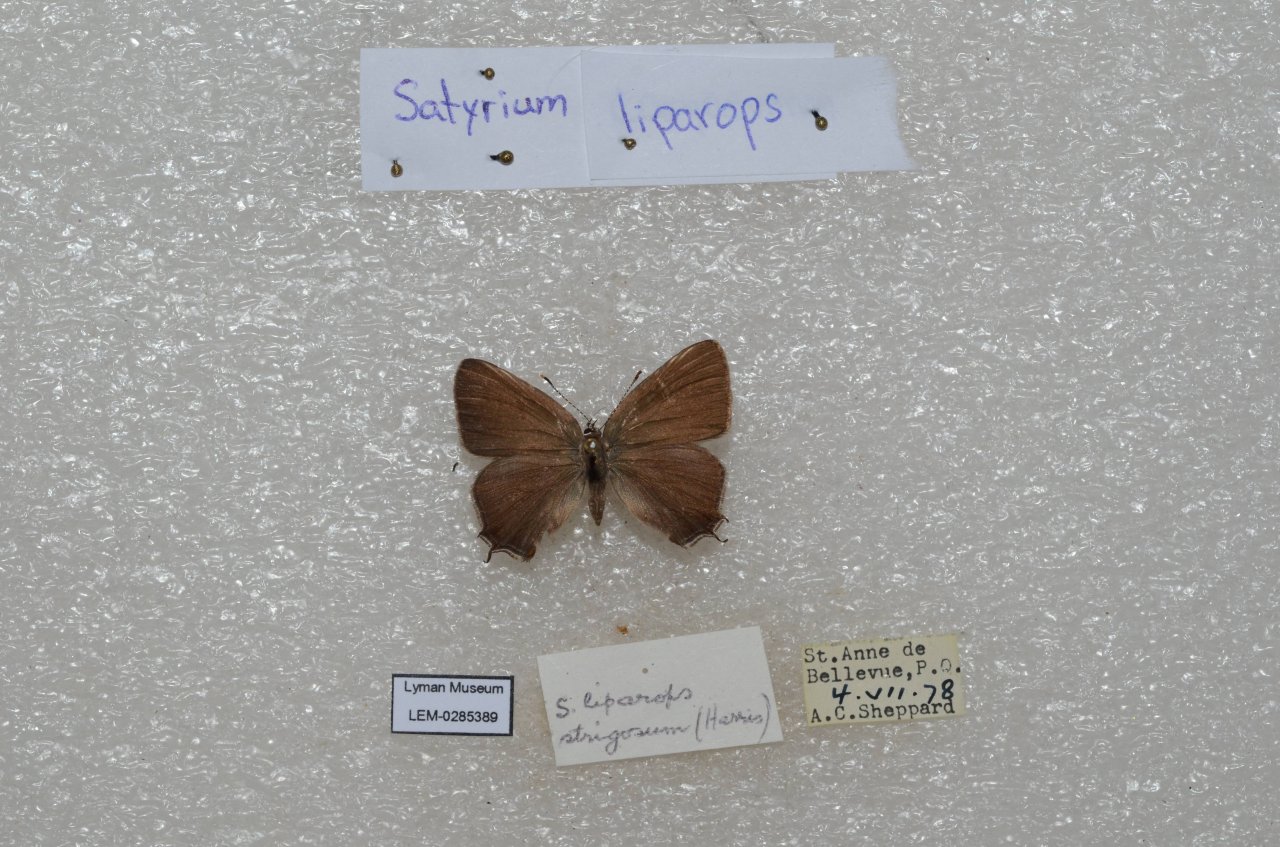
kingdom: Animalia
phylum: Arthropoda
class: Insecta
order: Lepidoptera
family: Lycaenidae
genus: Satyrium
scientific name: Satyrium liparops
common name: Striped Hairstreak
